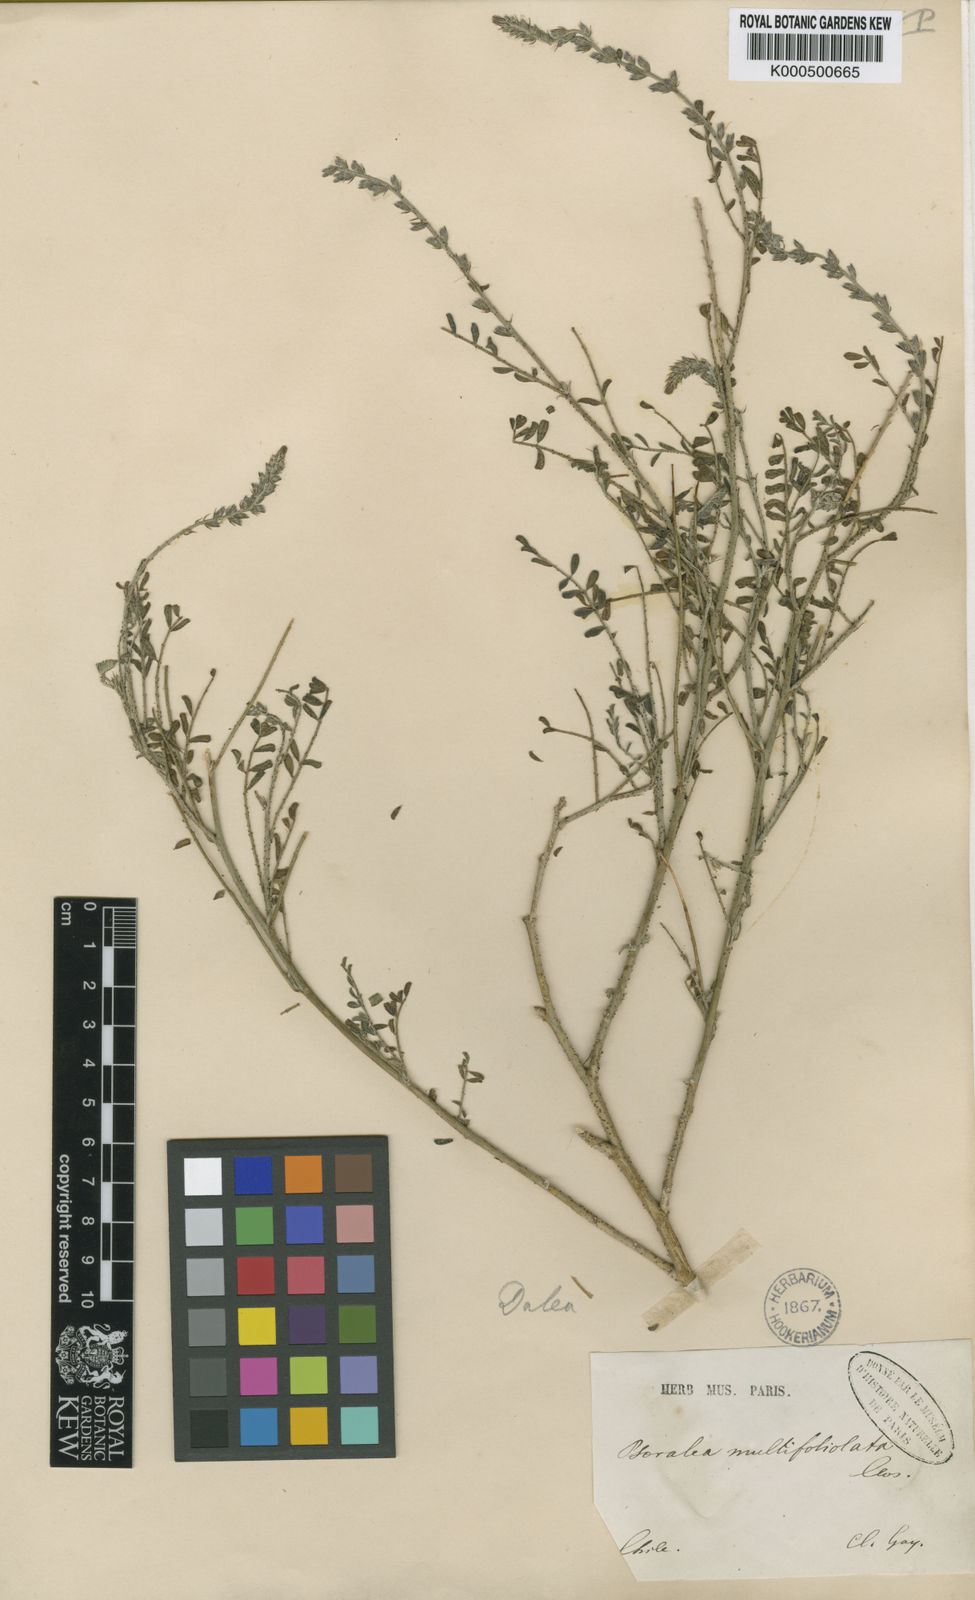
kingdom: Plantae
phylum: Tracheophyta
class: Magnoliopsida
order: Fabales
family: Fabaceae
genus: Errazurizia
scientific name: Errazurizia multifoliolata
